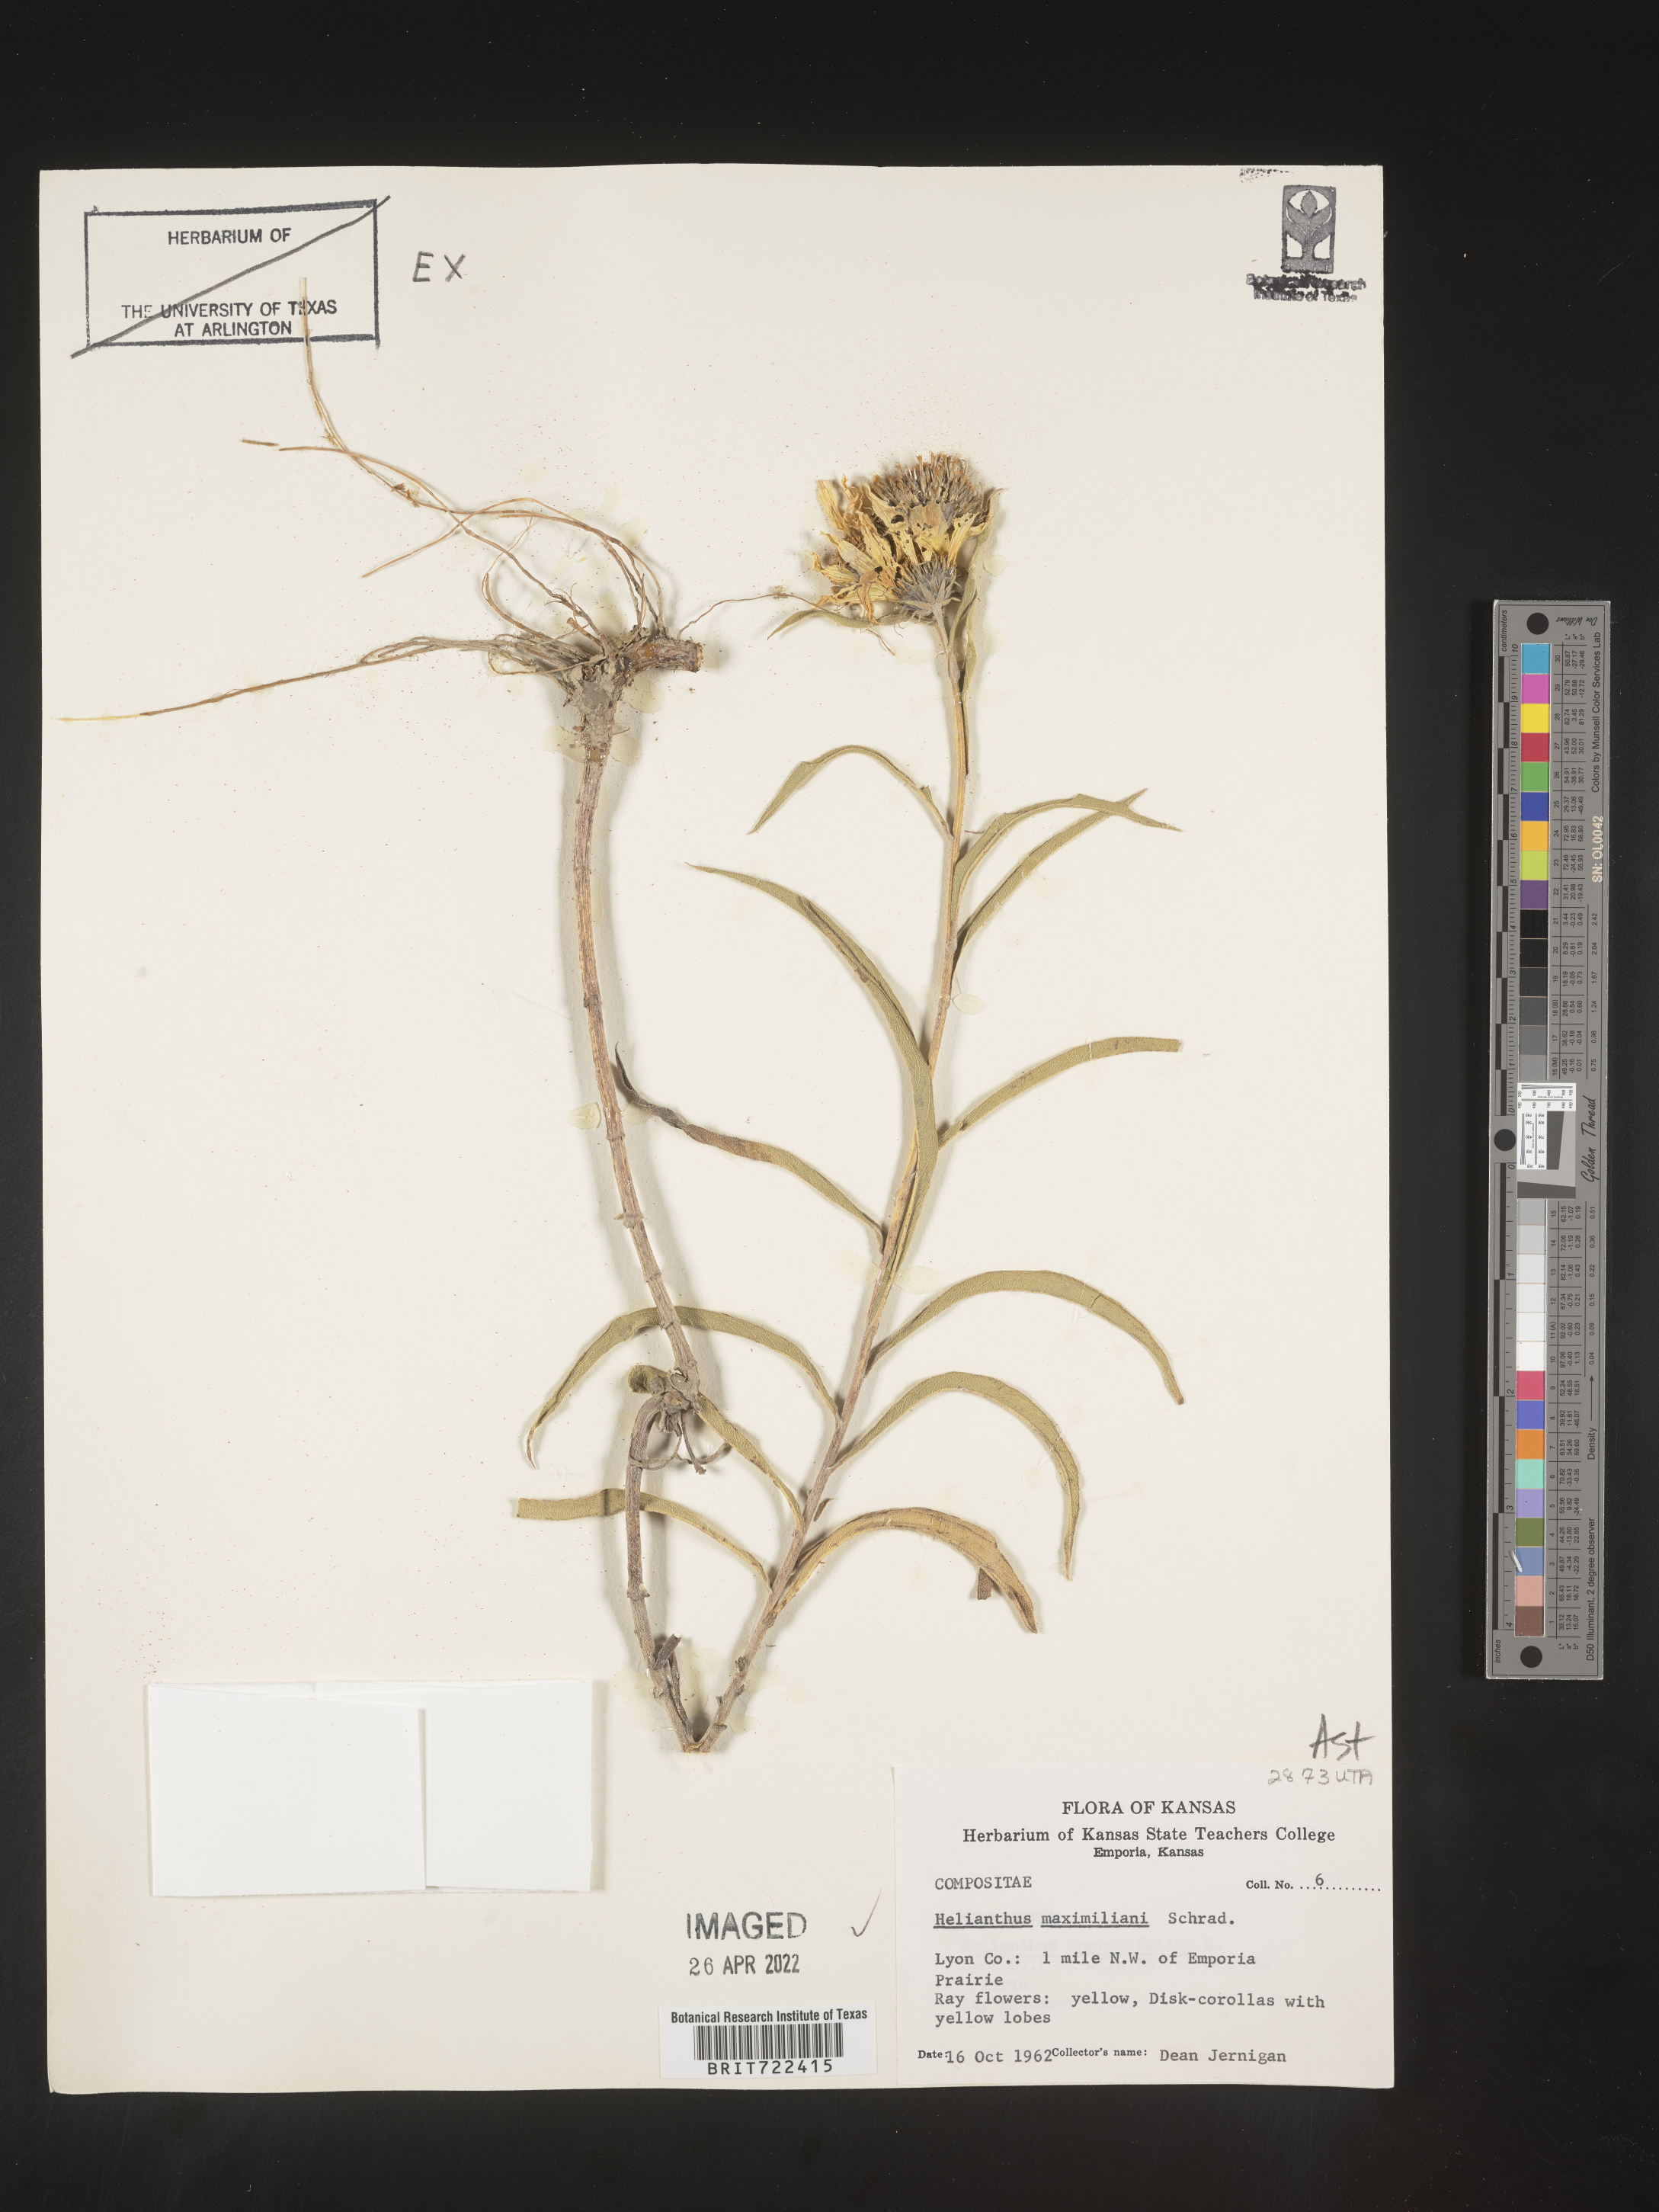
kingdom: Plantae
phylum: Tracheophyta
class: Magnoliopsida
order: Asterales
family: Asteraceae
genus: Helianthus
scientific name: Helianthus maximiliani
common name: Maximilian's sunflower
